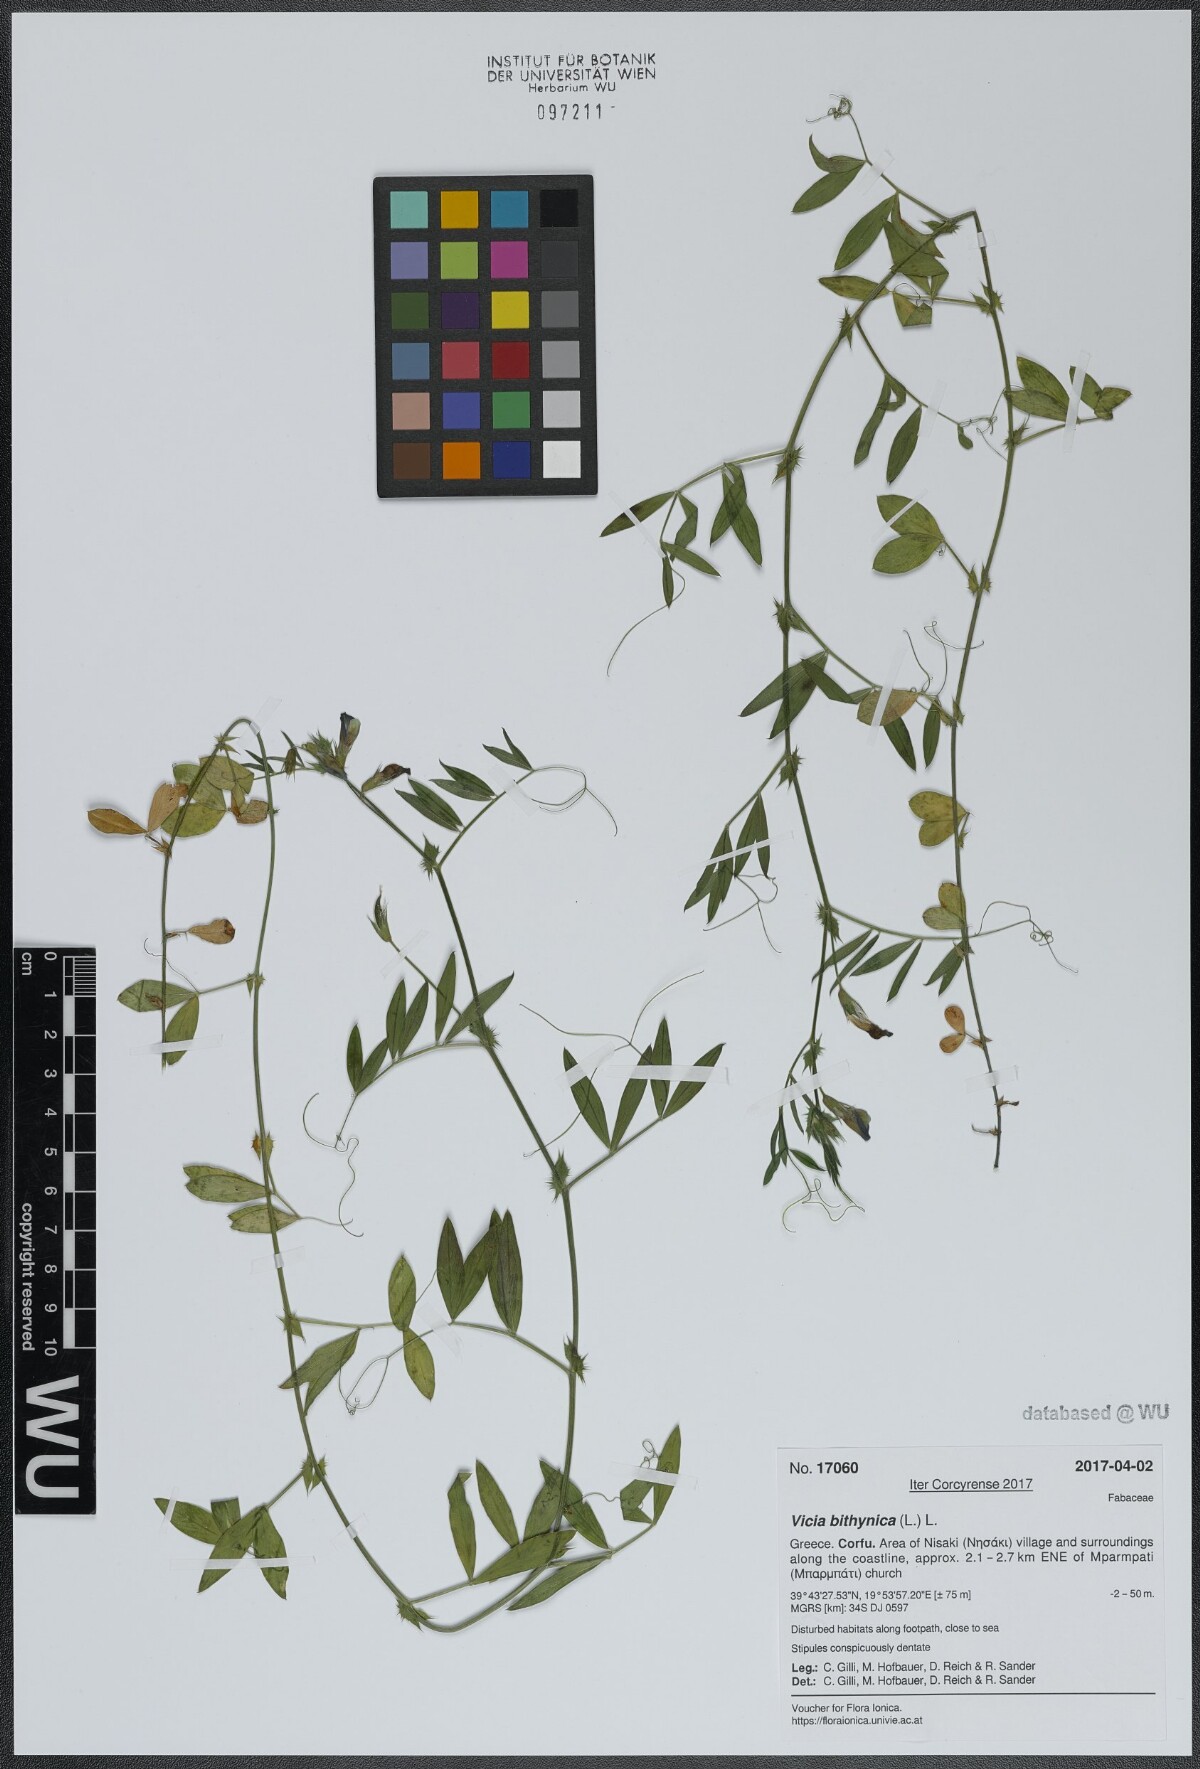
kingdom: Plantae
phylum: Tracheophyta
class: Magnoliopsida
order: Fabales
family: Fabaceae
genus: Vicia
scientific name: Vicia bithynica
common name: Bithynian vetch
